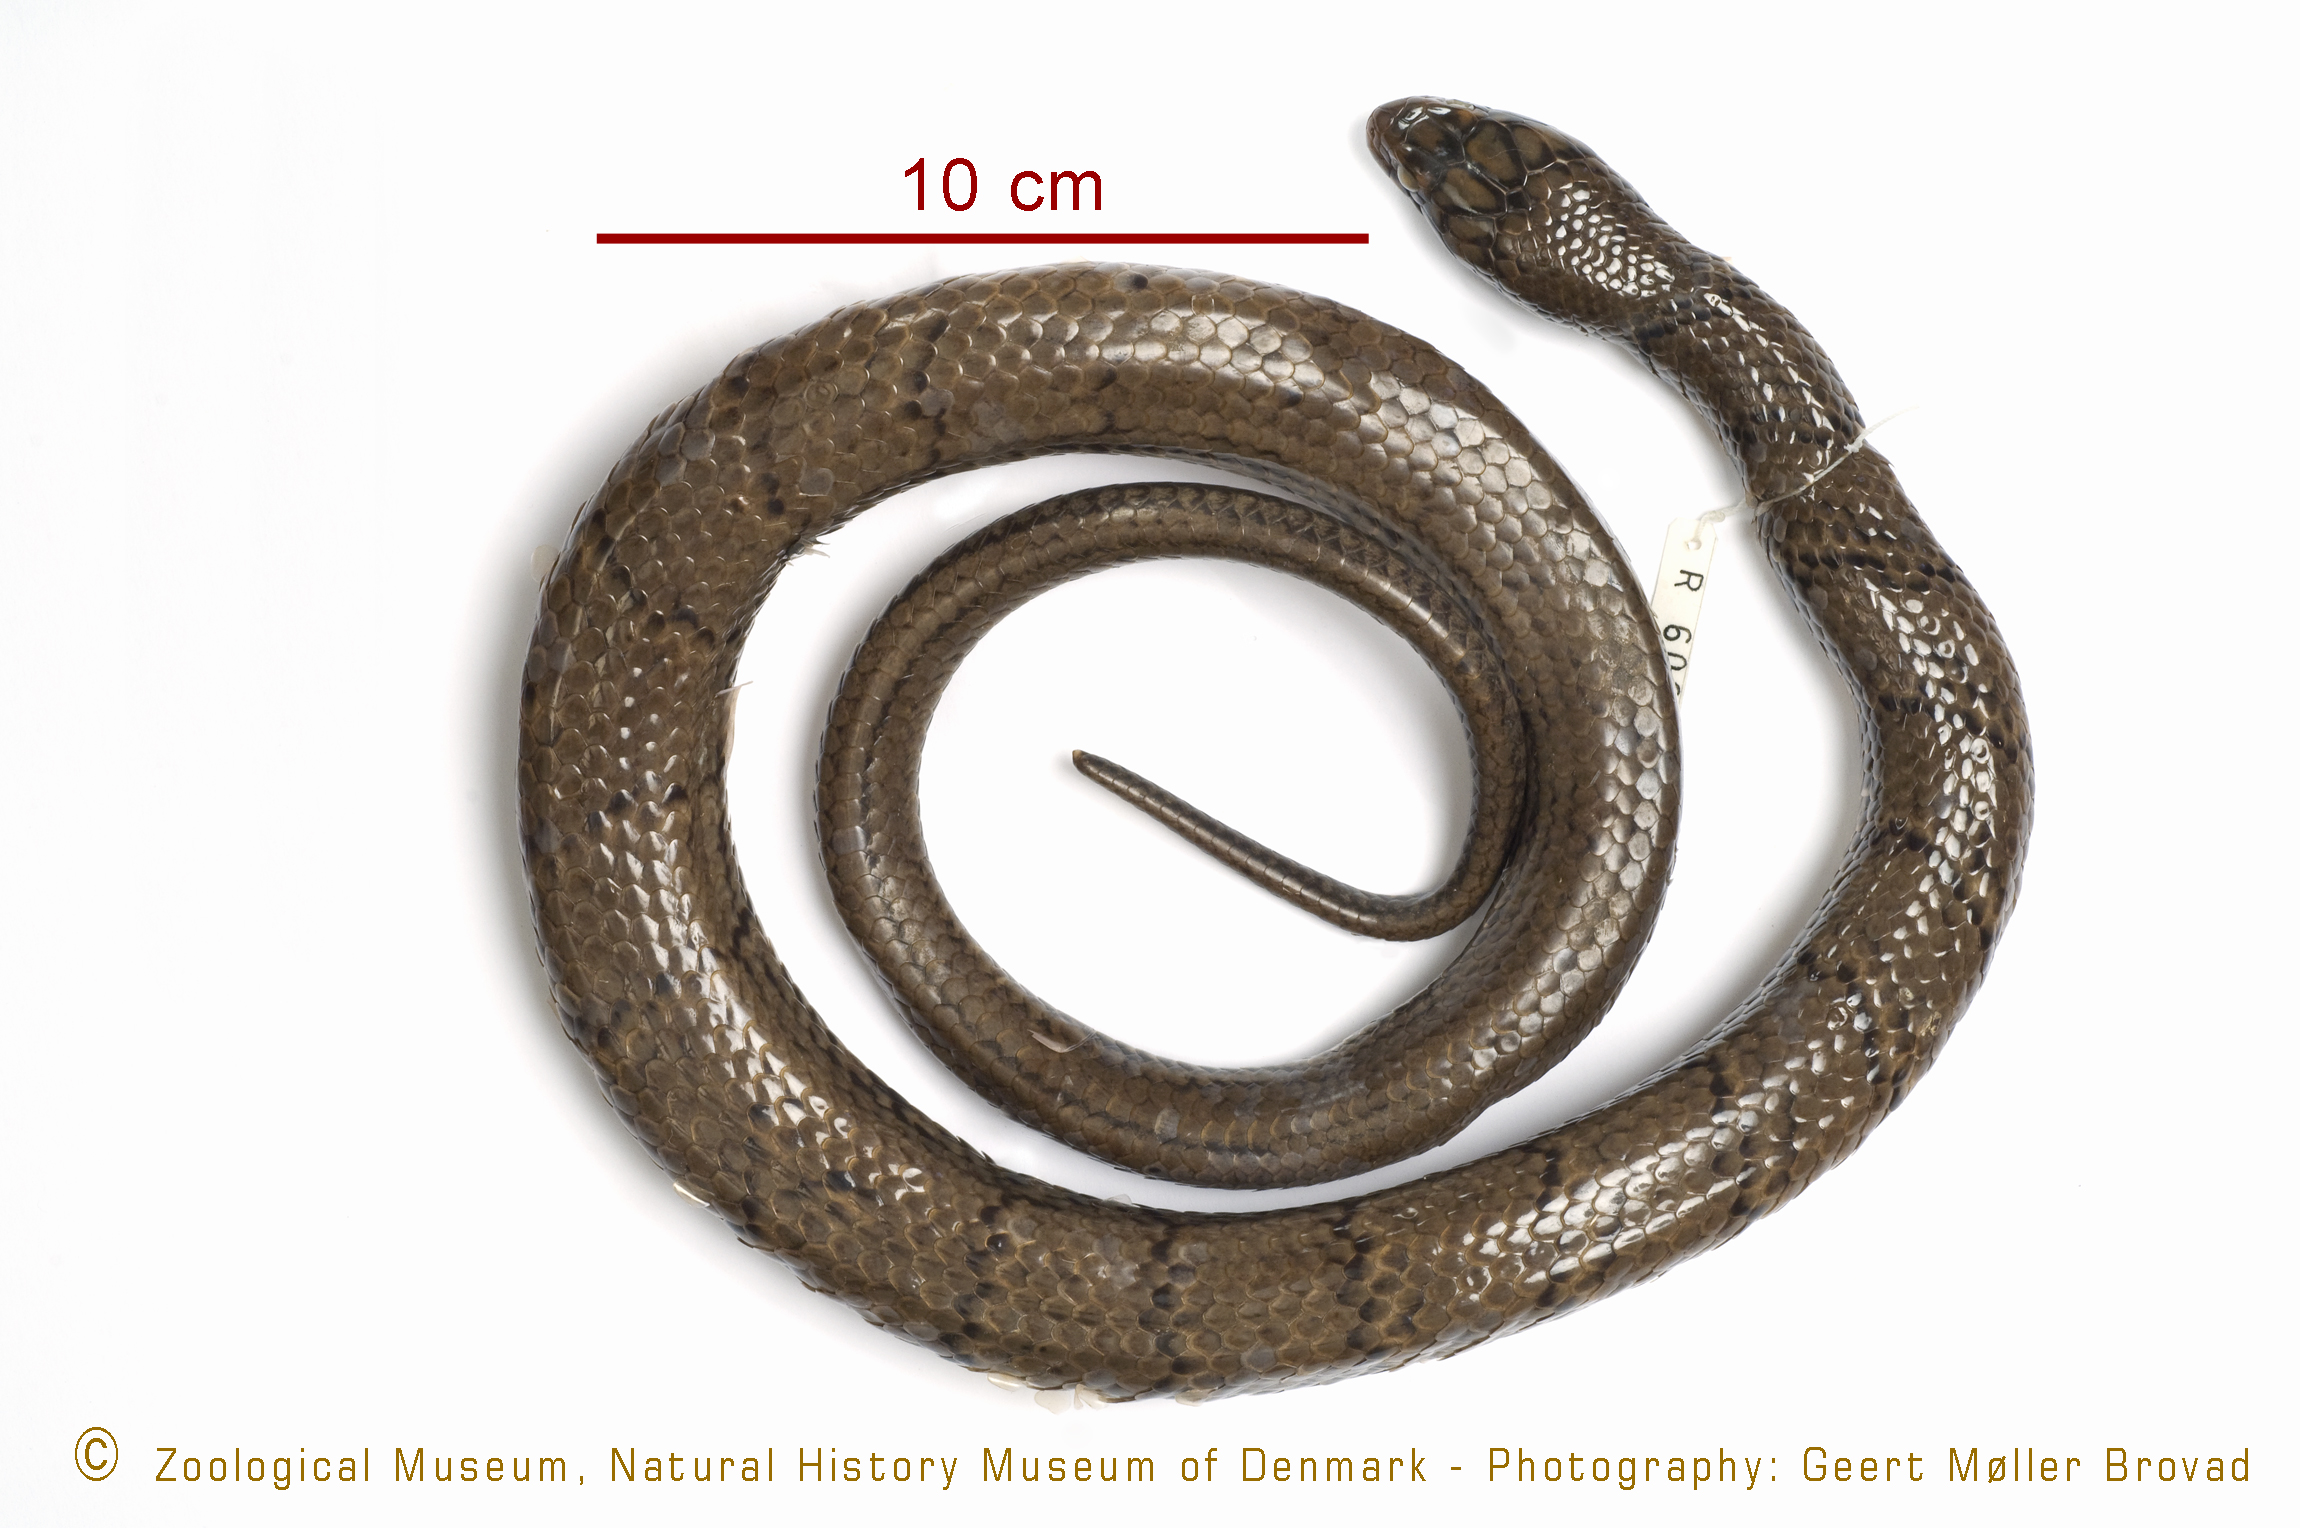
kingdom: Animalia
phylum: Chordata
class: Squamata
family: Colubridae
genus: Grayia
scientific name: Grayia smithii
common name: Smith's african water snake
